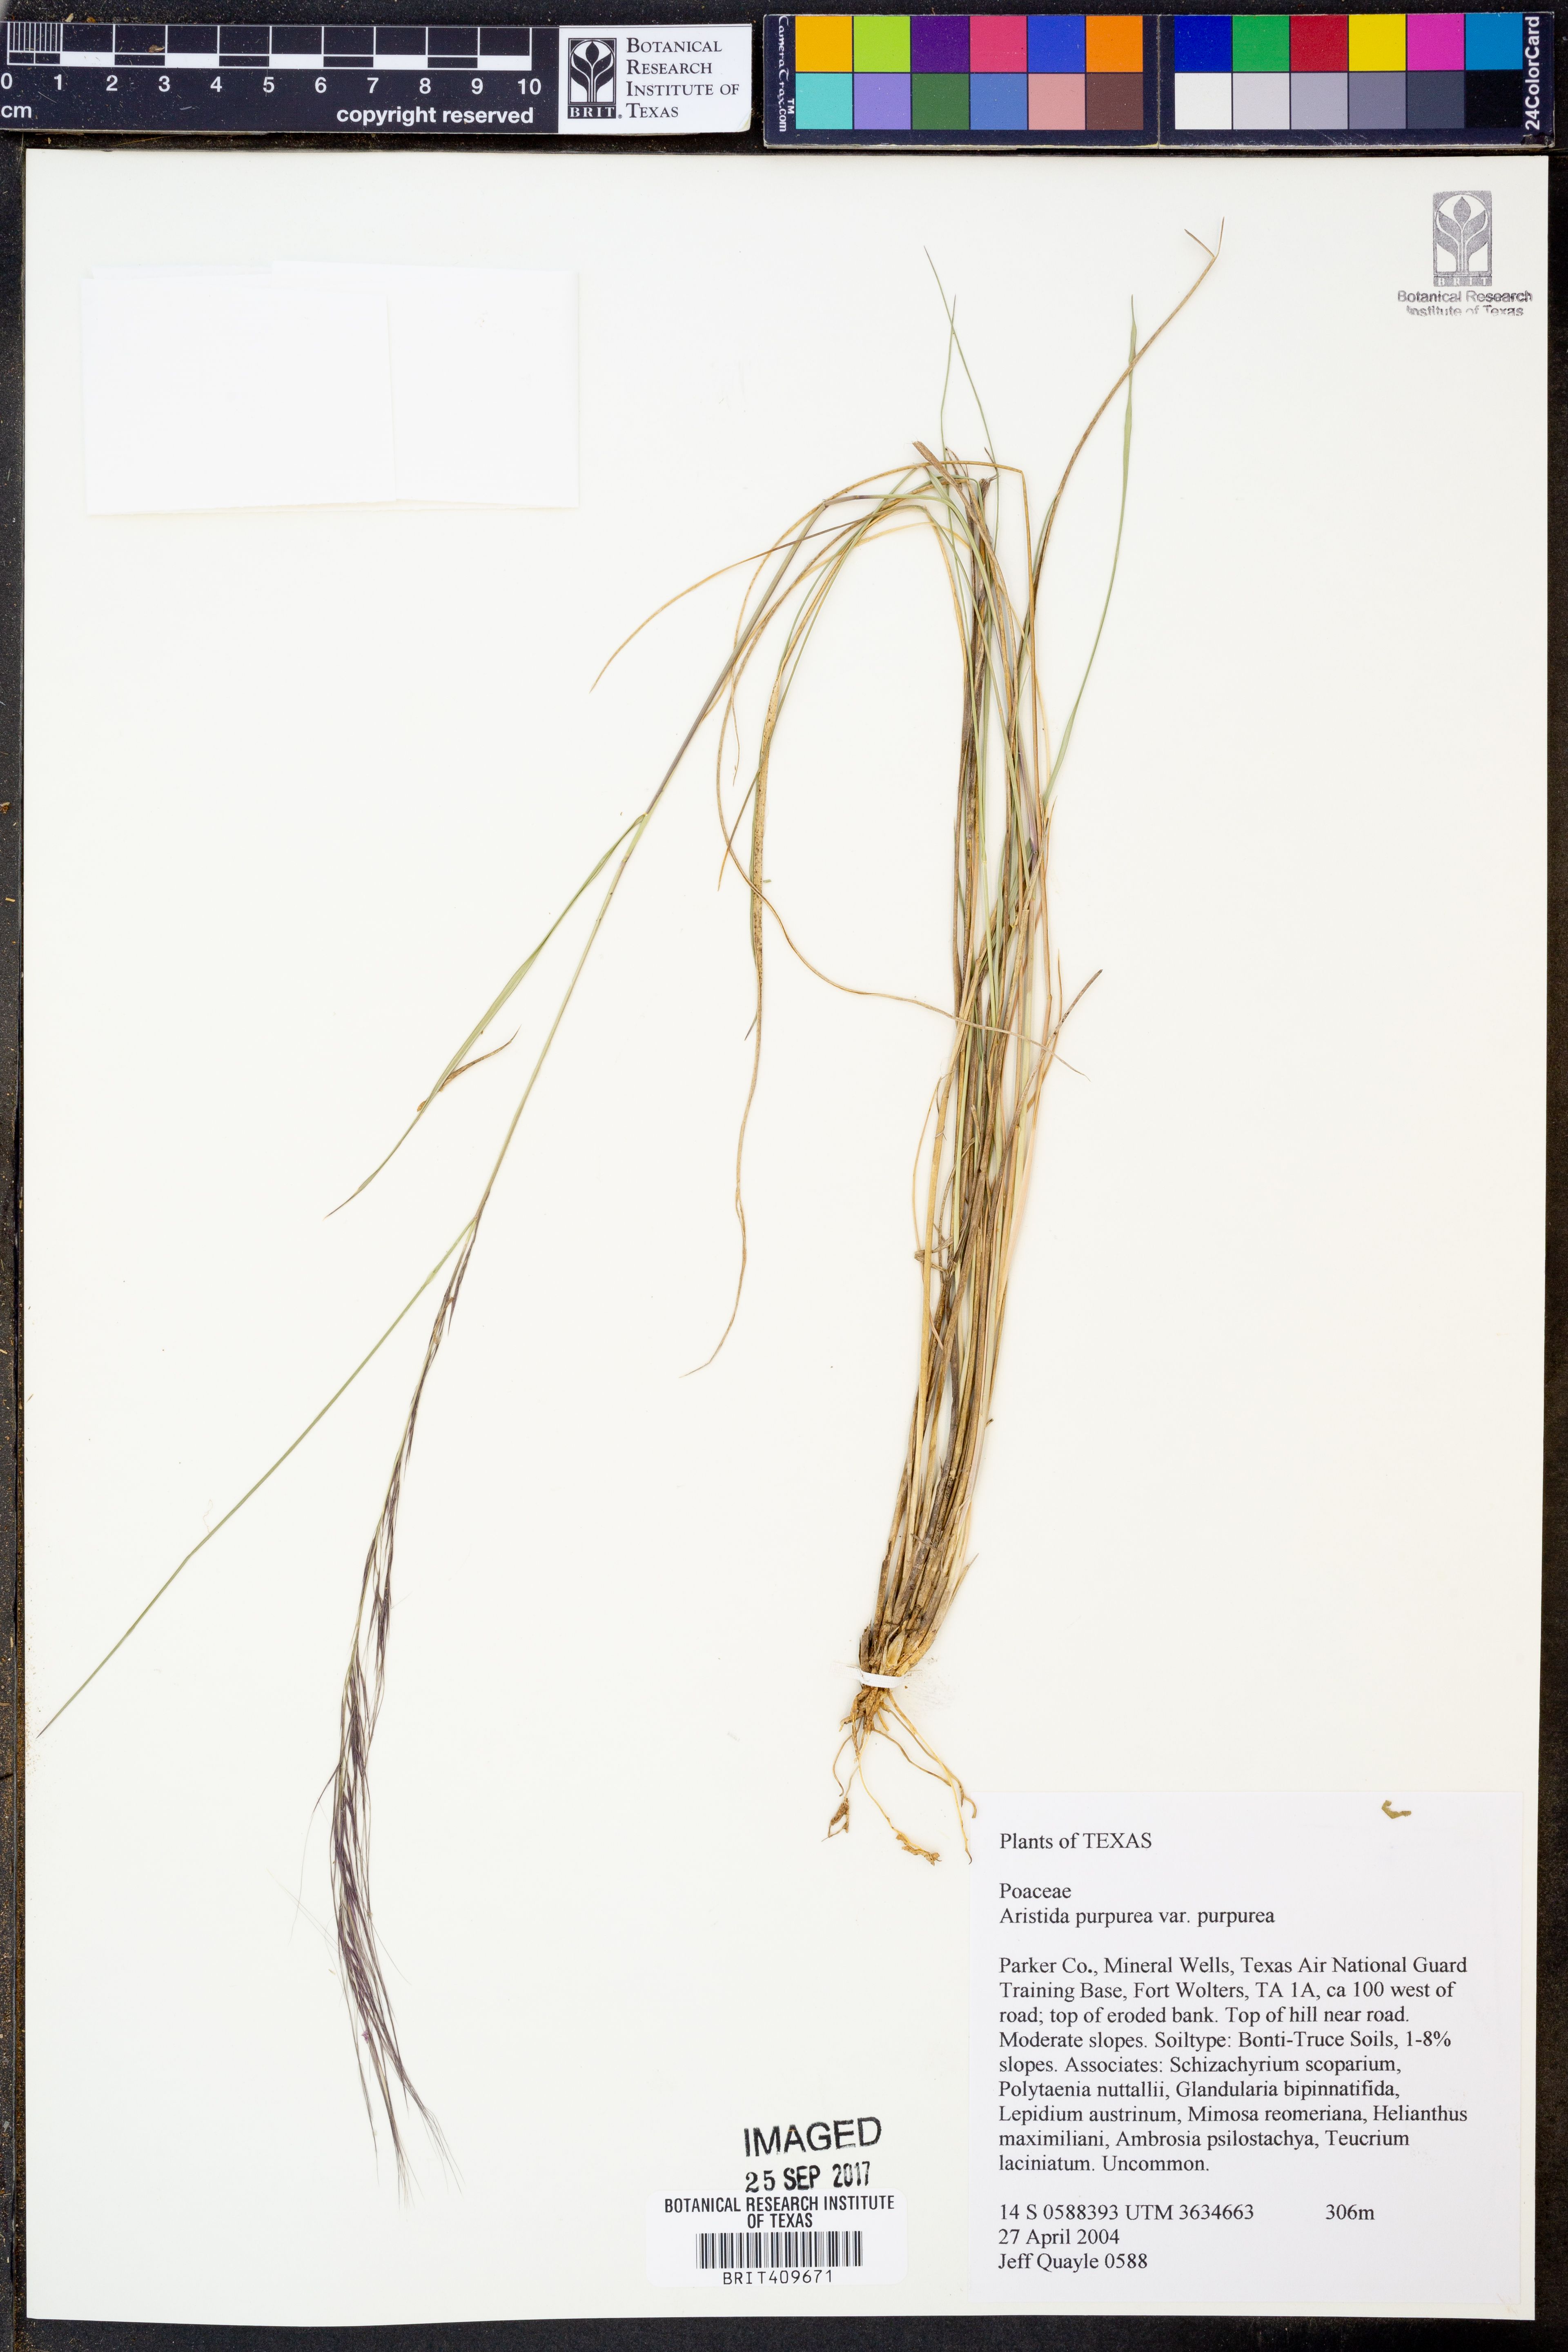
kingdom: Plantae
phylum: Tracheophyta
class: Liliopsida
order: Poales
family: Poaceae
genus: Aristida
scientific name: Aristida purpurea
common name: Purple threeawn
